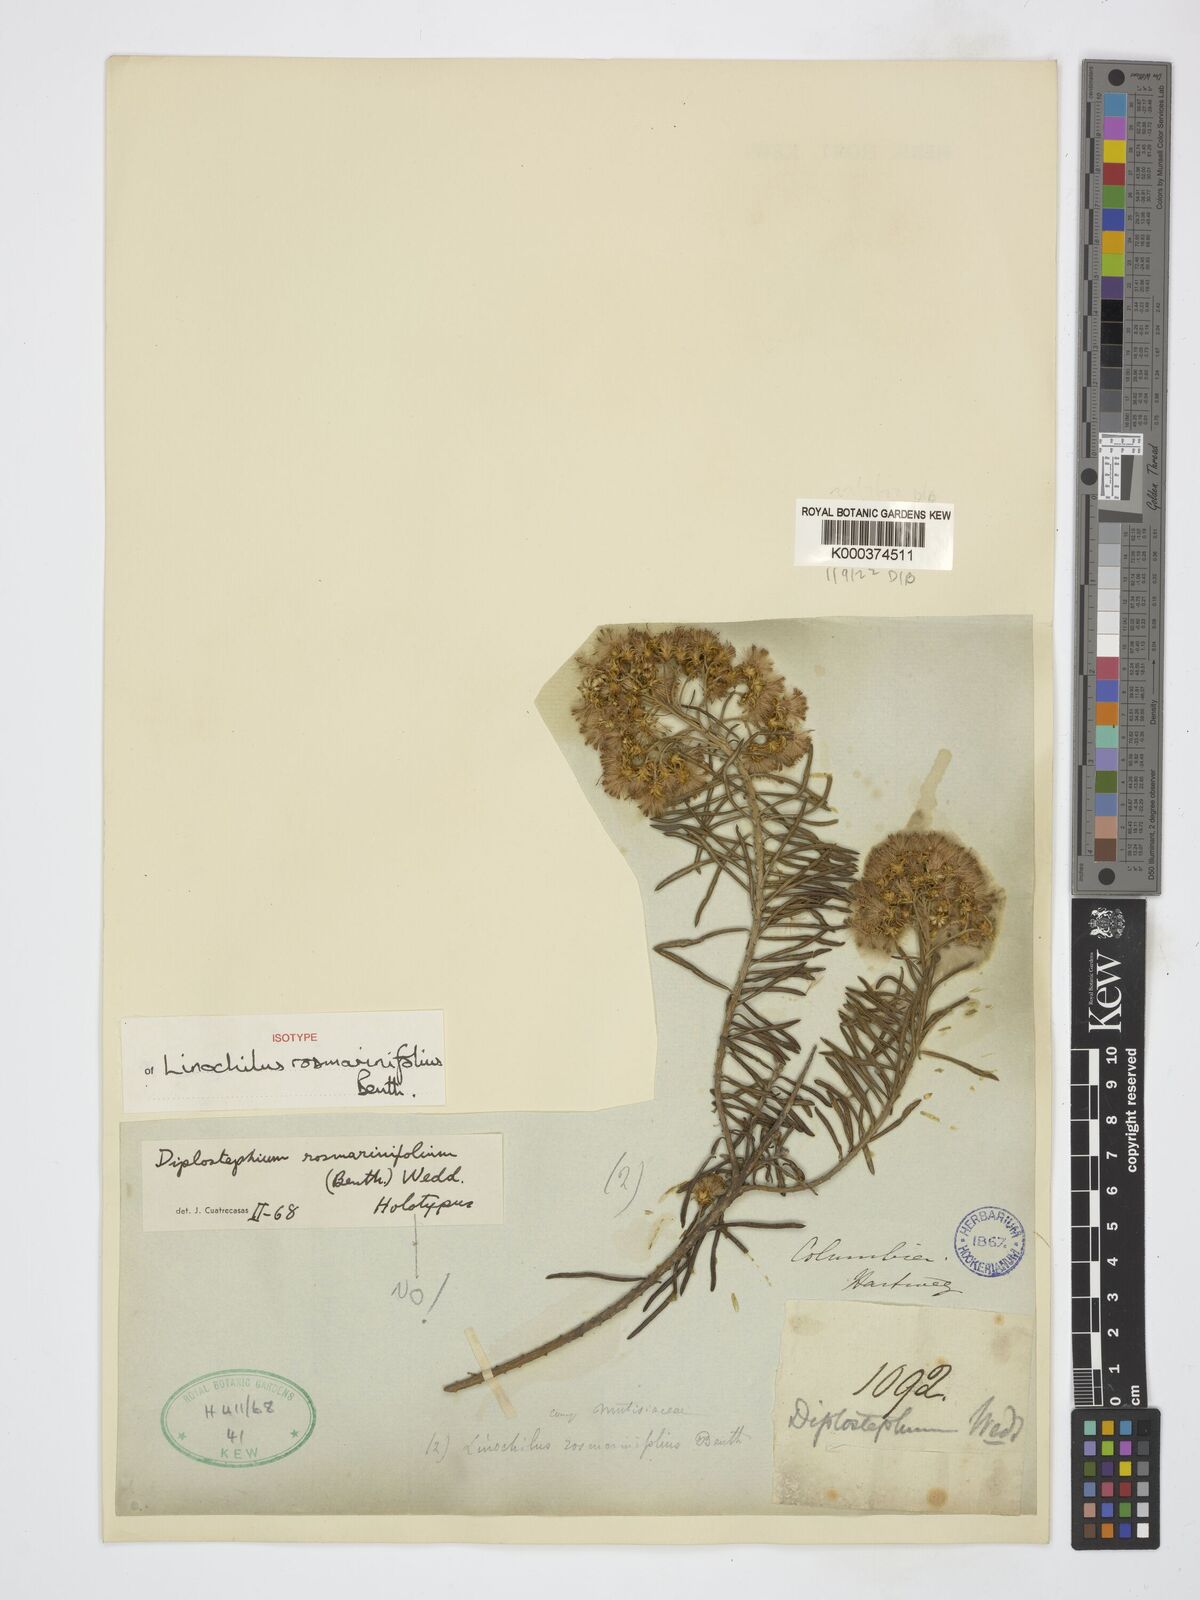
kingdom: Plantae
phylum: Tracheophyta
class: Magnoliopsida
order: Asterales
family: Asteraceae
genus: Linochilus
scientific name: Linochilus rosmarinifolius
